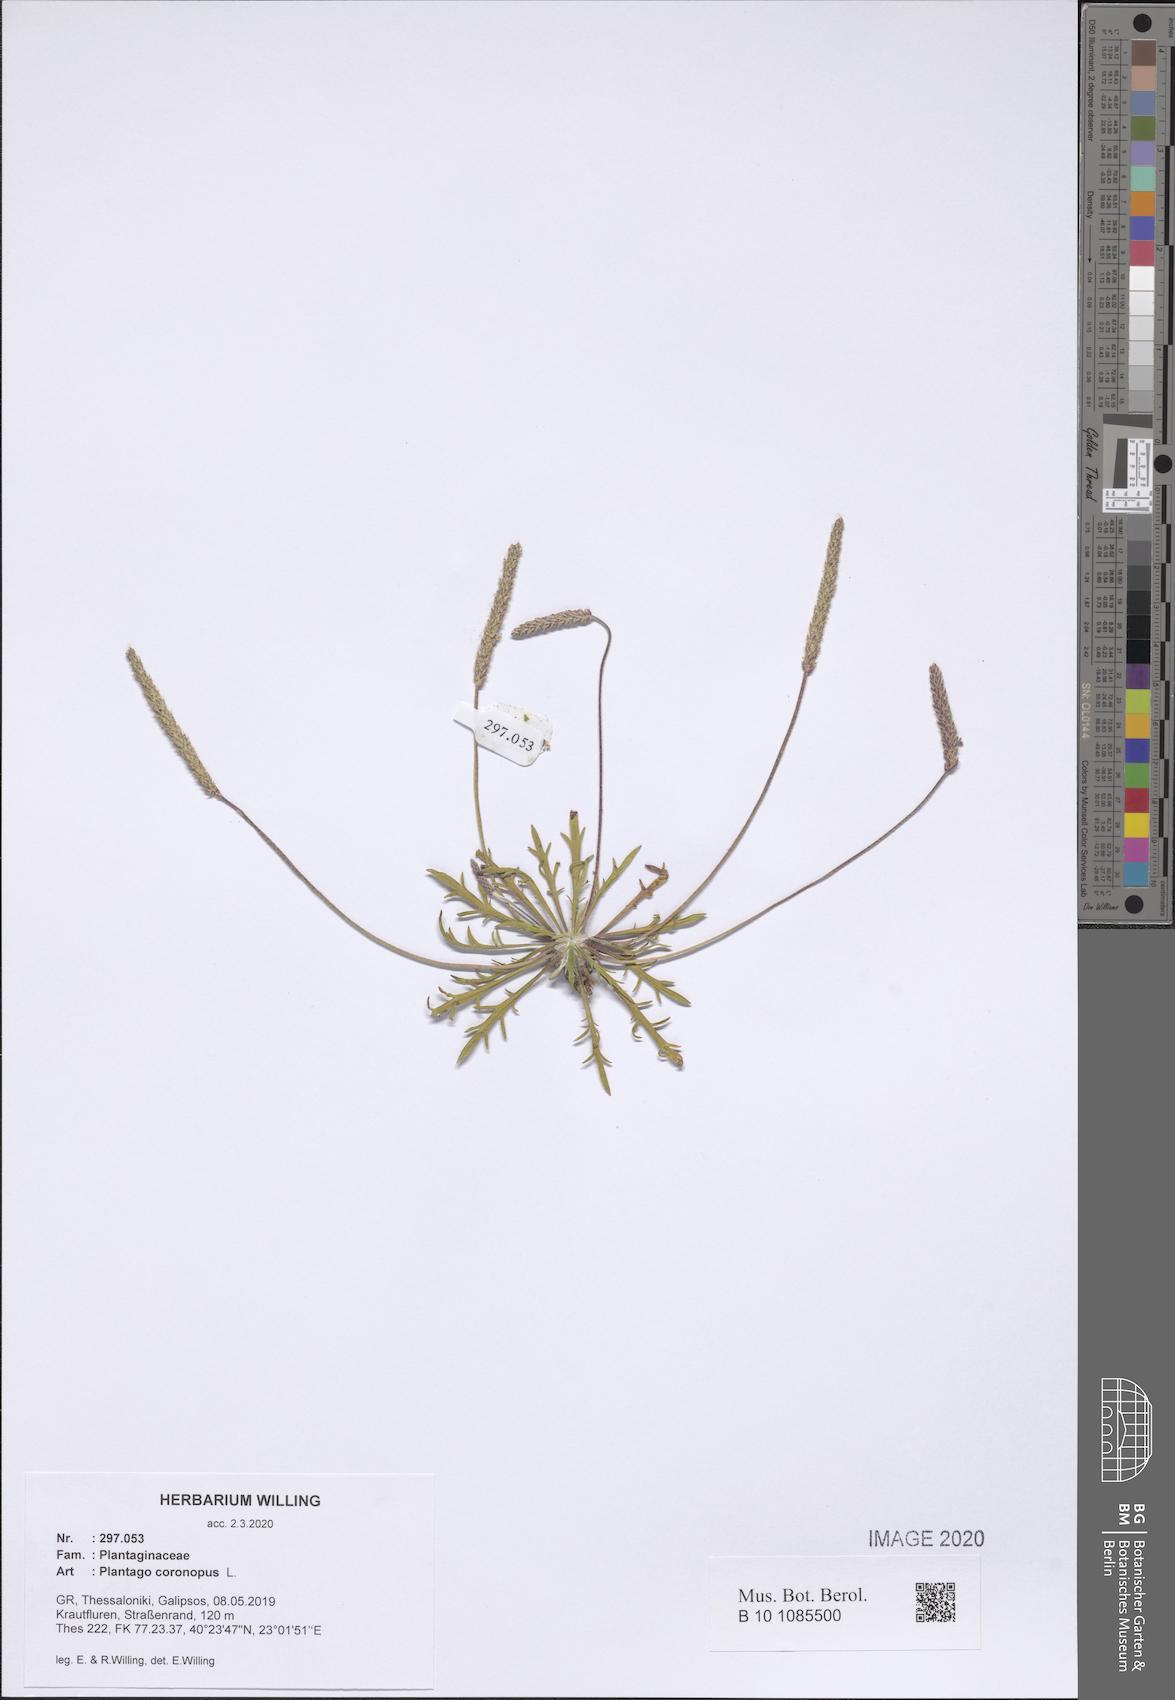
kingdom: Plantae
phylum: Tracheophyta
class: Magnoliopsida
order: Lamiales
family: Plantaginaceae
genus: Plantago
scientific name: Plantago coronopus
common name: Buck's-horn plantain
